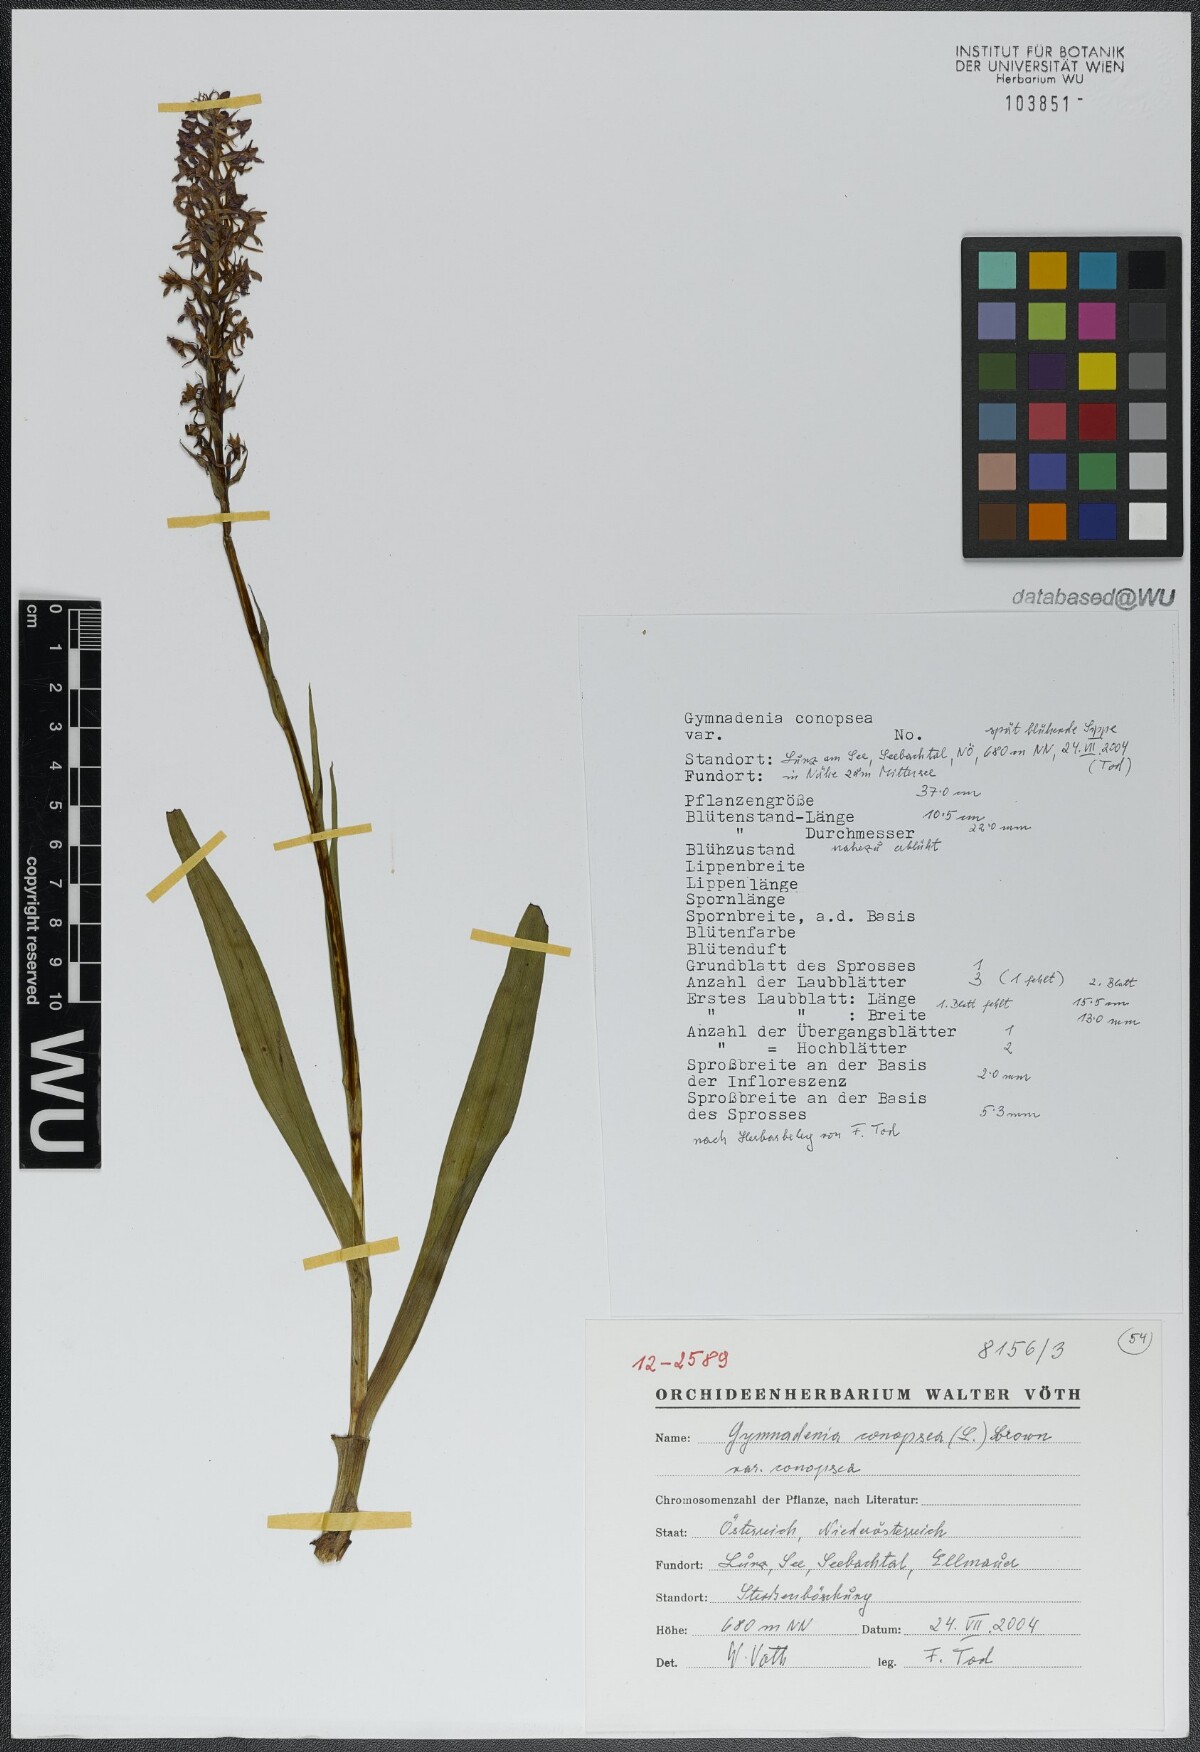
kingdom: Plantae
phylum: Tracheophyta
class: Liliopsida
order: Asparagales
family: Orchidaceae
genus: Gymnadenia
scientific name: Gymnadenia conopsea
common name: Fragrant orchid
